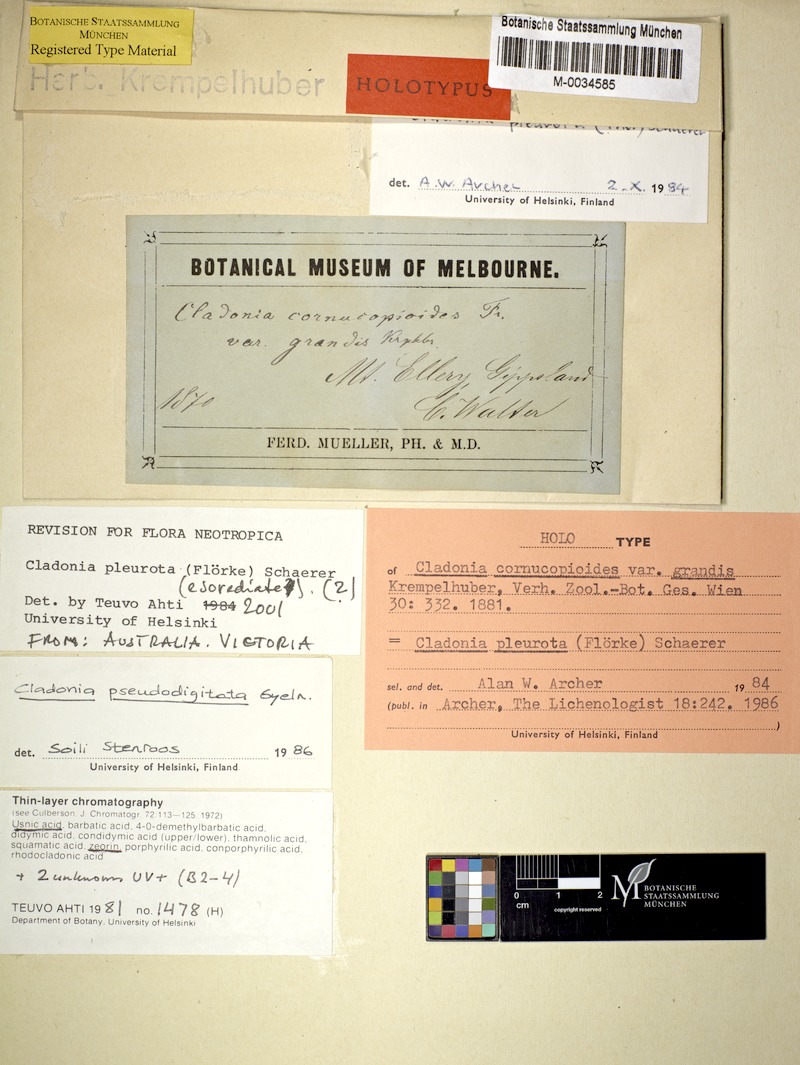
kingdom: Fungi
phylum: Ascomycota
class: Lecanoromycetes
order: Lecanorales
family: Cladoniaceae
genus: Cladonia
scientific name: Cladonia pleurota
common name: Red-fruited pixie cup
